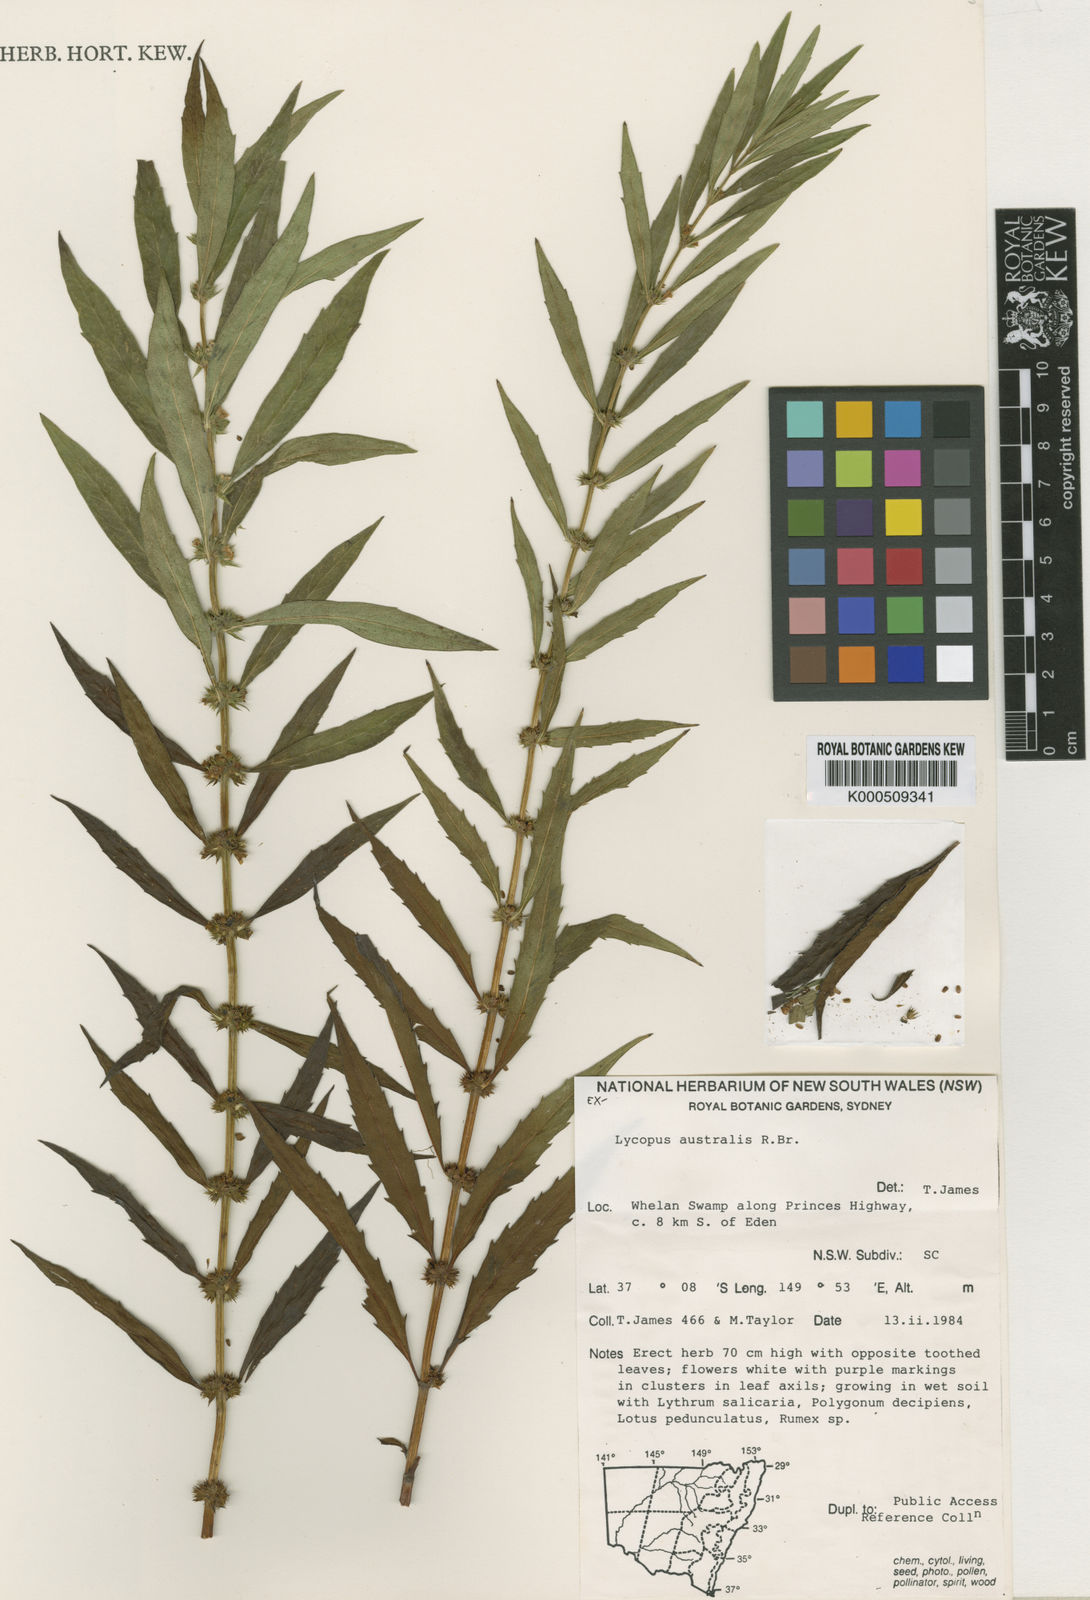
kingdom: Plantae
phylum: Tracheophyta
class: Magnoliopsida
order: Lamiales
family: Lamiaceae
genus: Lycopus
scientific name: Lycopus australis
